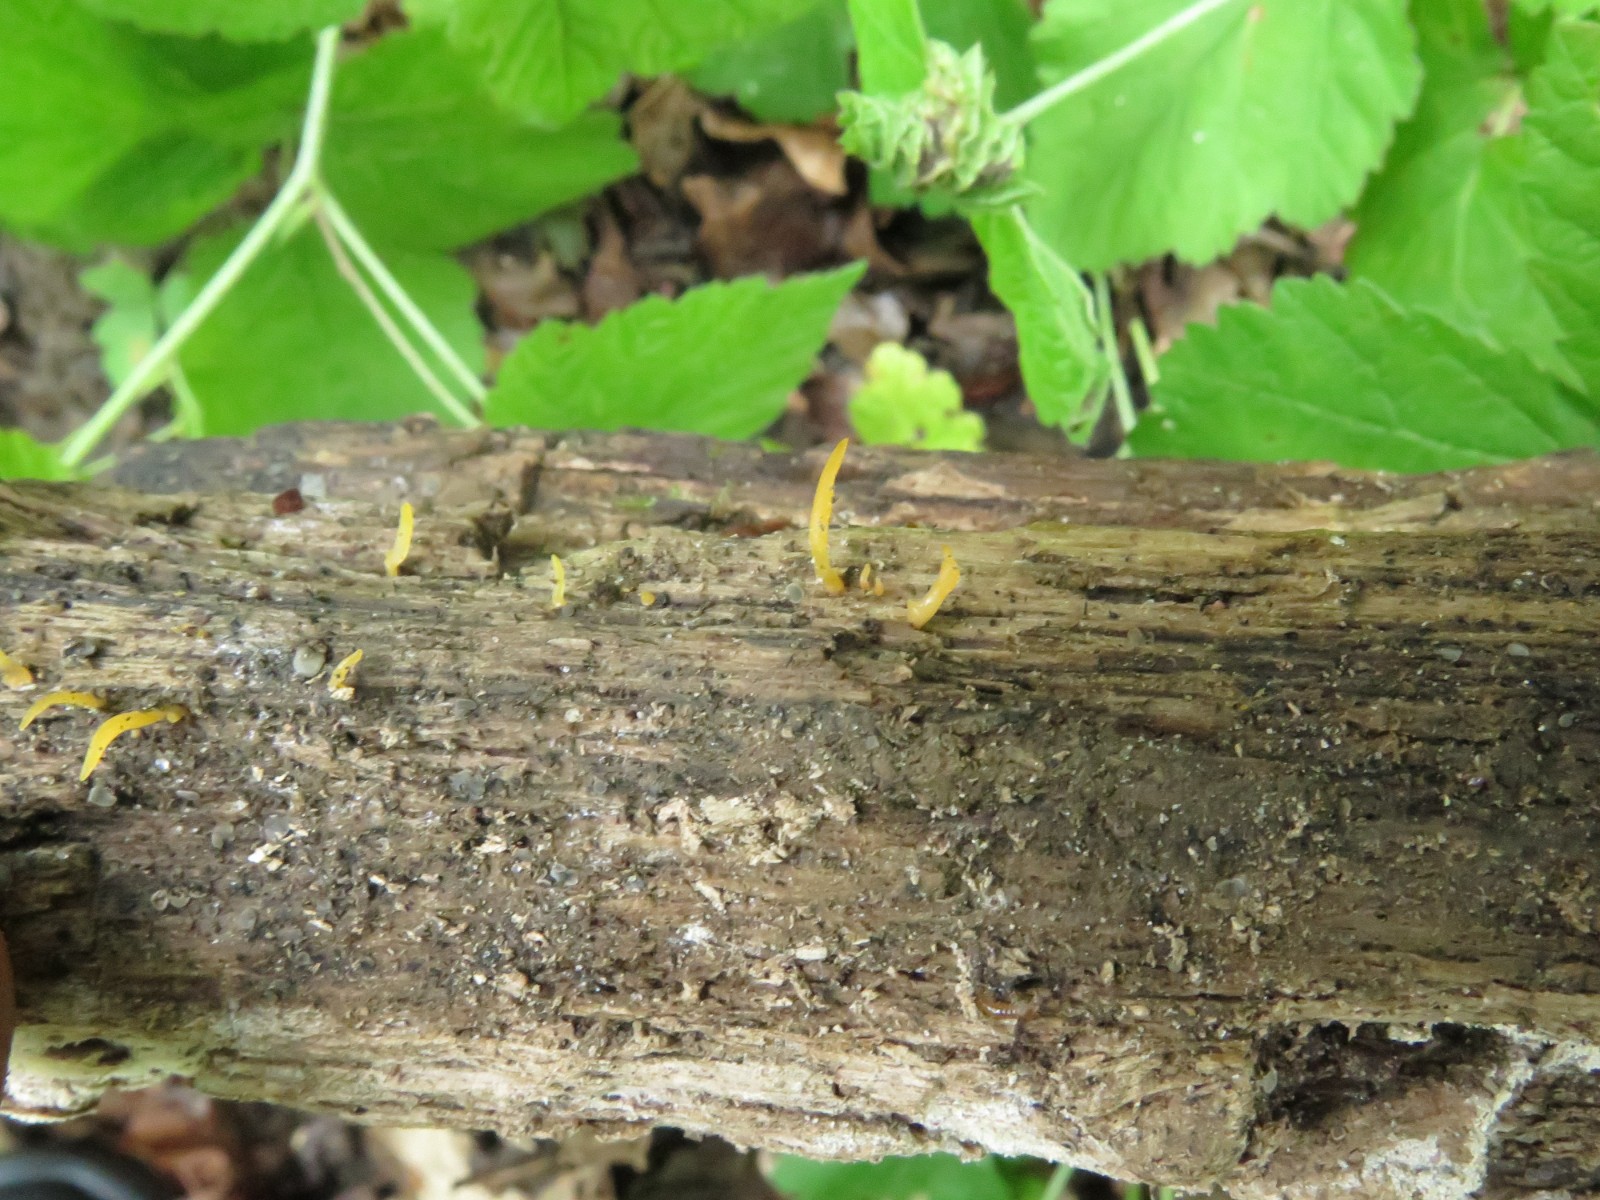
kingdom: Fungi
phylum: Basidiomycota
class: Dacrymycetes
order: Dacrymycetales
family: Dacrymycetaceae
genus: Calocera
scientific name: Calocera cornea
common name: liden guldgaffel
